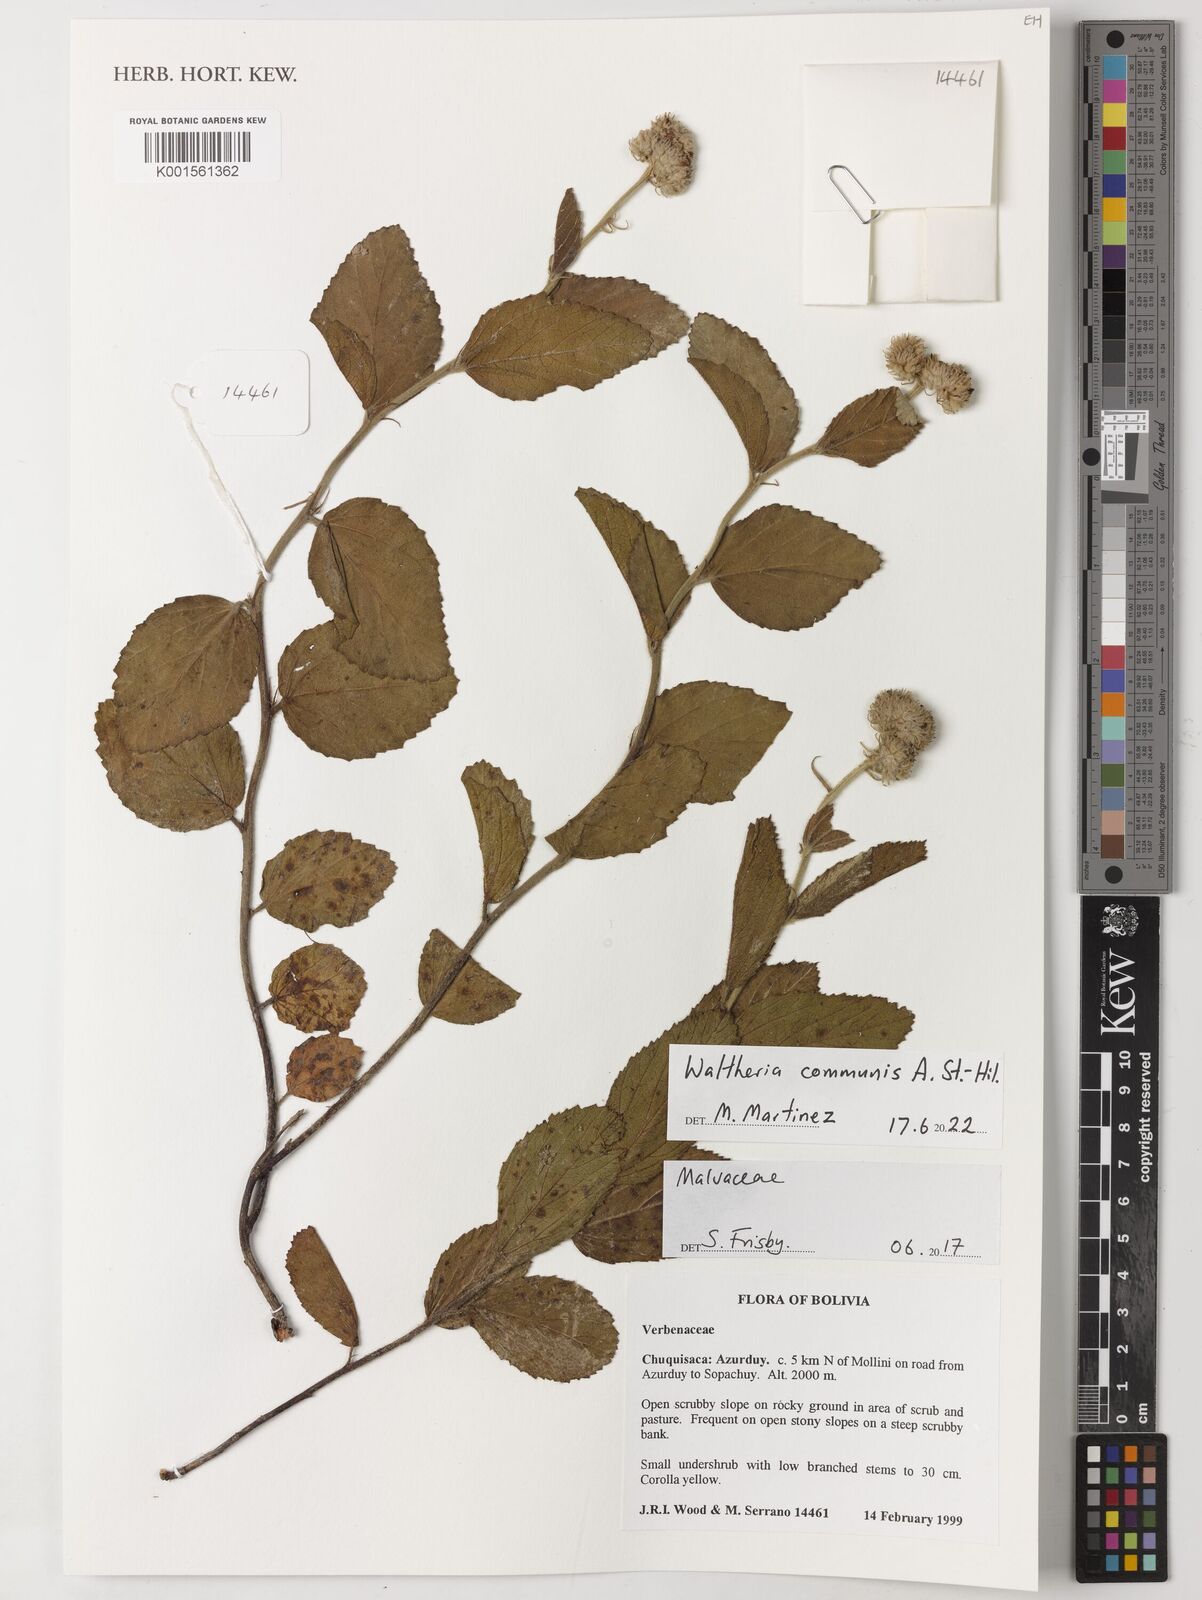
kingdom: Plantae
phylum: Tracheophyta
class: Magnoliopsida
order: Malvales
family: Malvaceae
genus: Waltheria
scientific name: Waltheria communis
